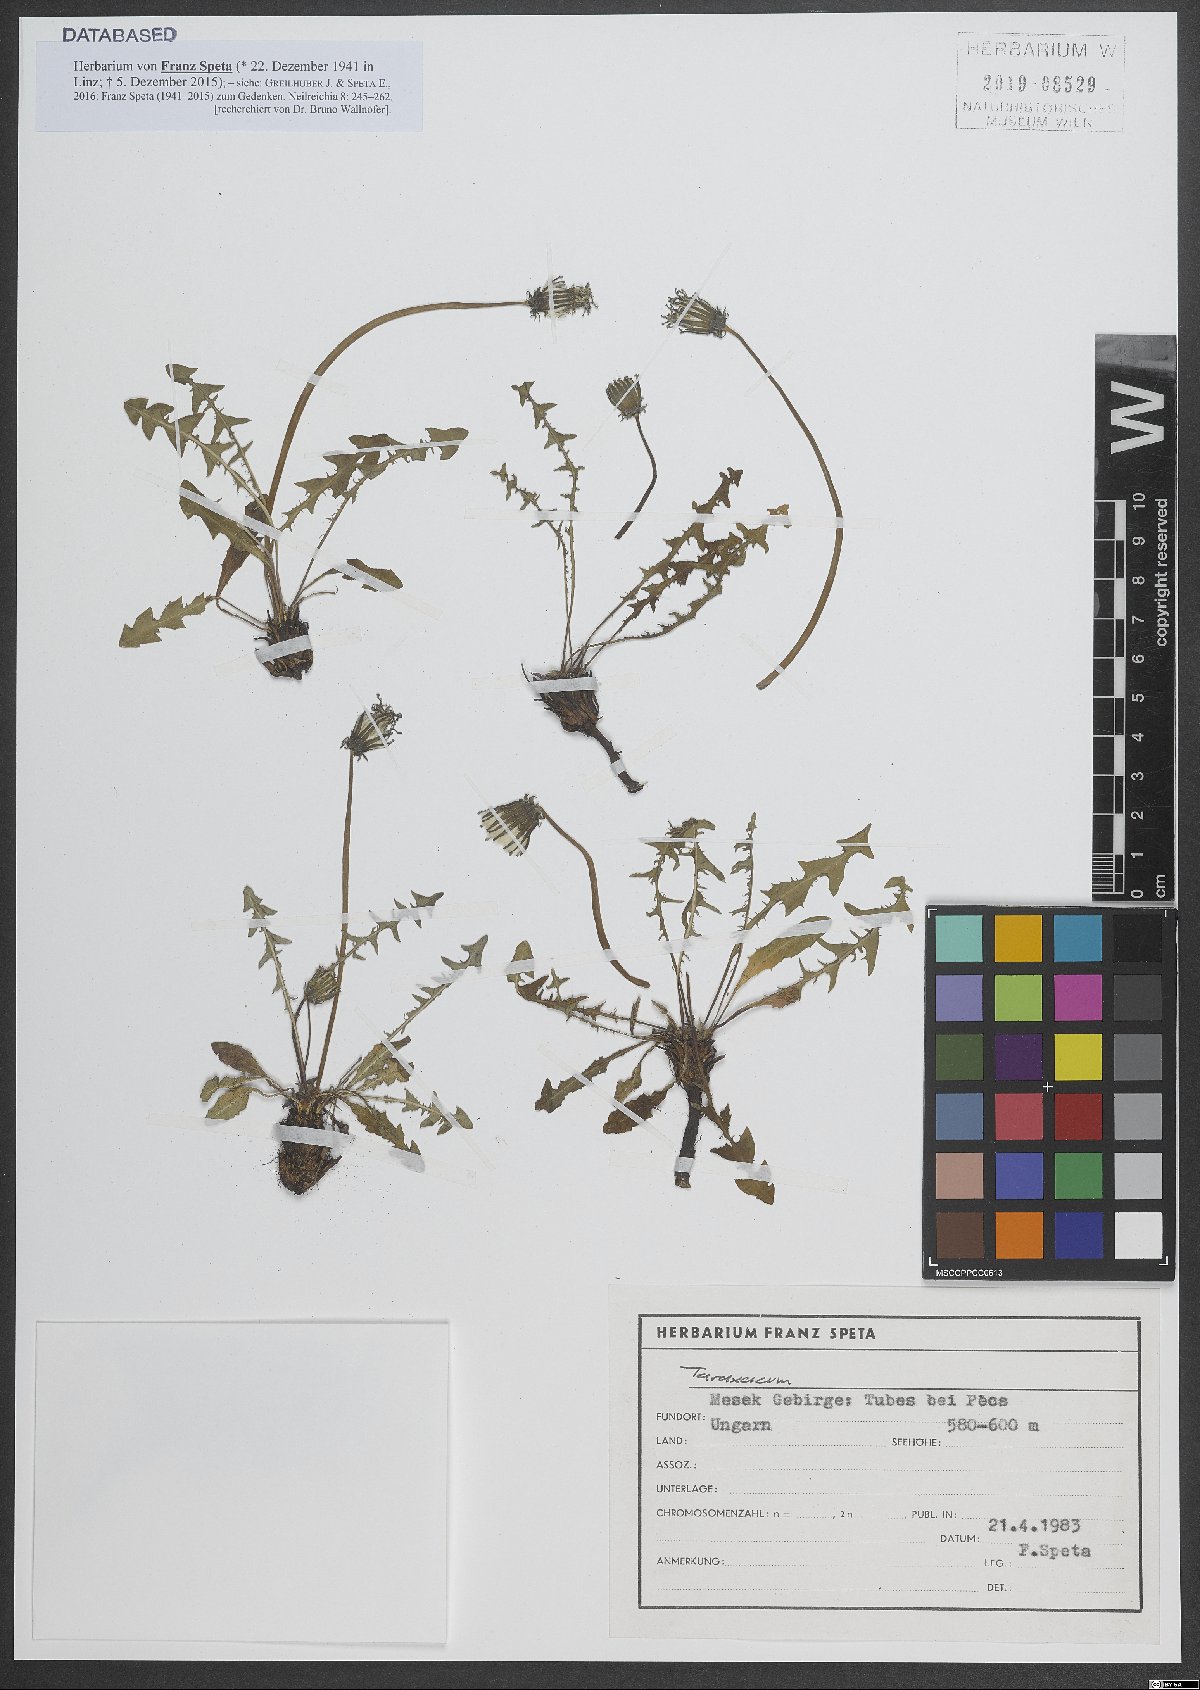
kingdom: Plantae
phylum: Tracheophyta
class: Magnoliopsida
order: Asterales
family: Asteraceae
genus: Taraxacum
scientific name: Taraxacum
